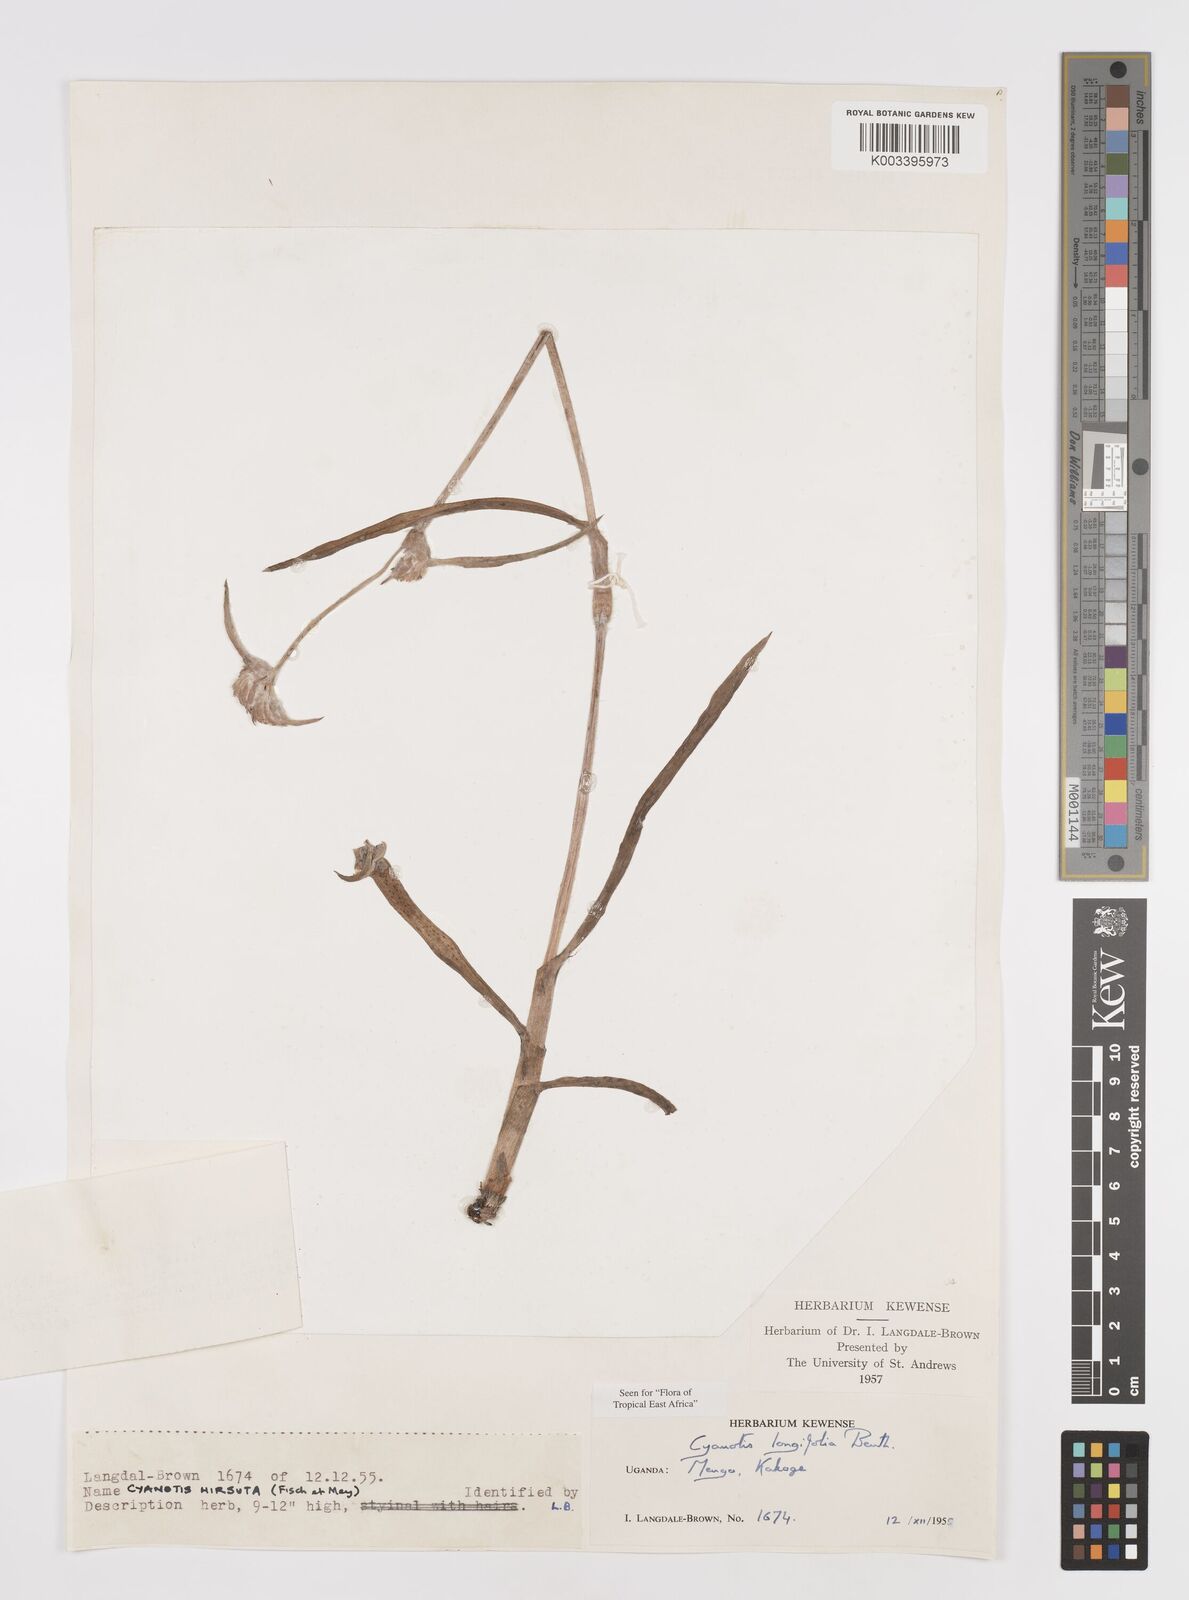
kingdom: Plantae
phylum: Tracheophyta
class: Liliopsida
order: Commelinales
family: Commelinaceae
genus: Cyanotis
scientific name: Cyanotis longifolia
